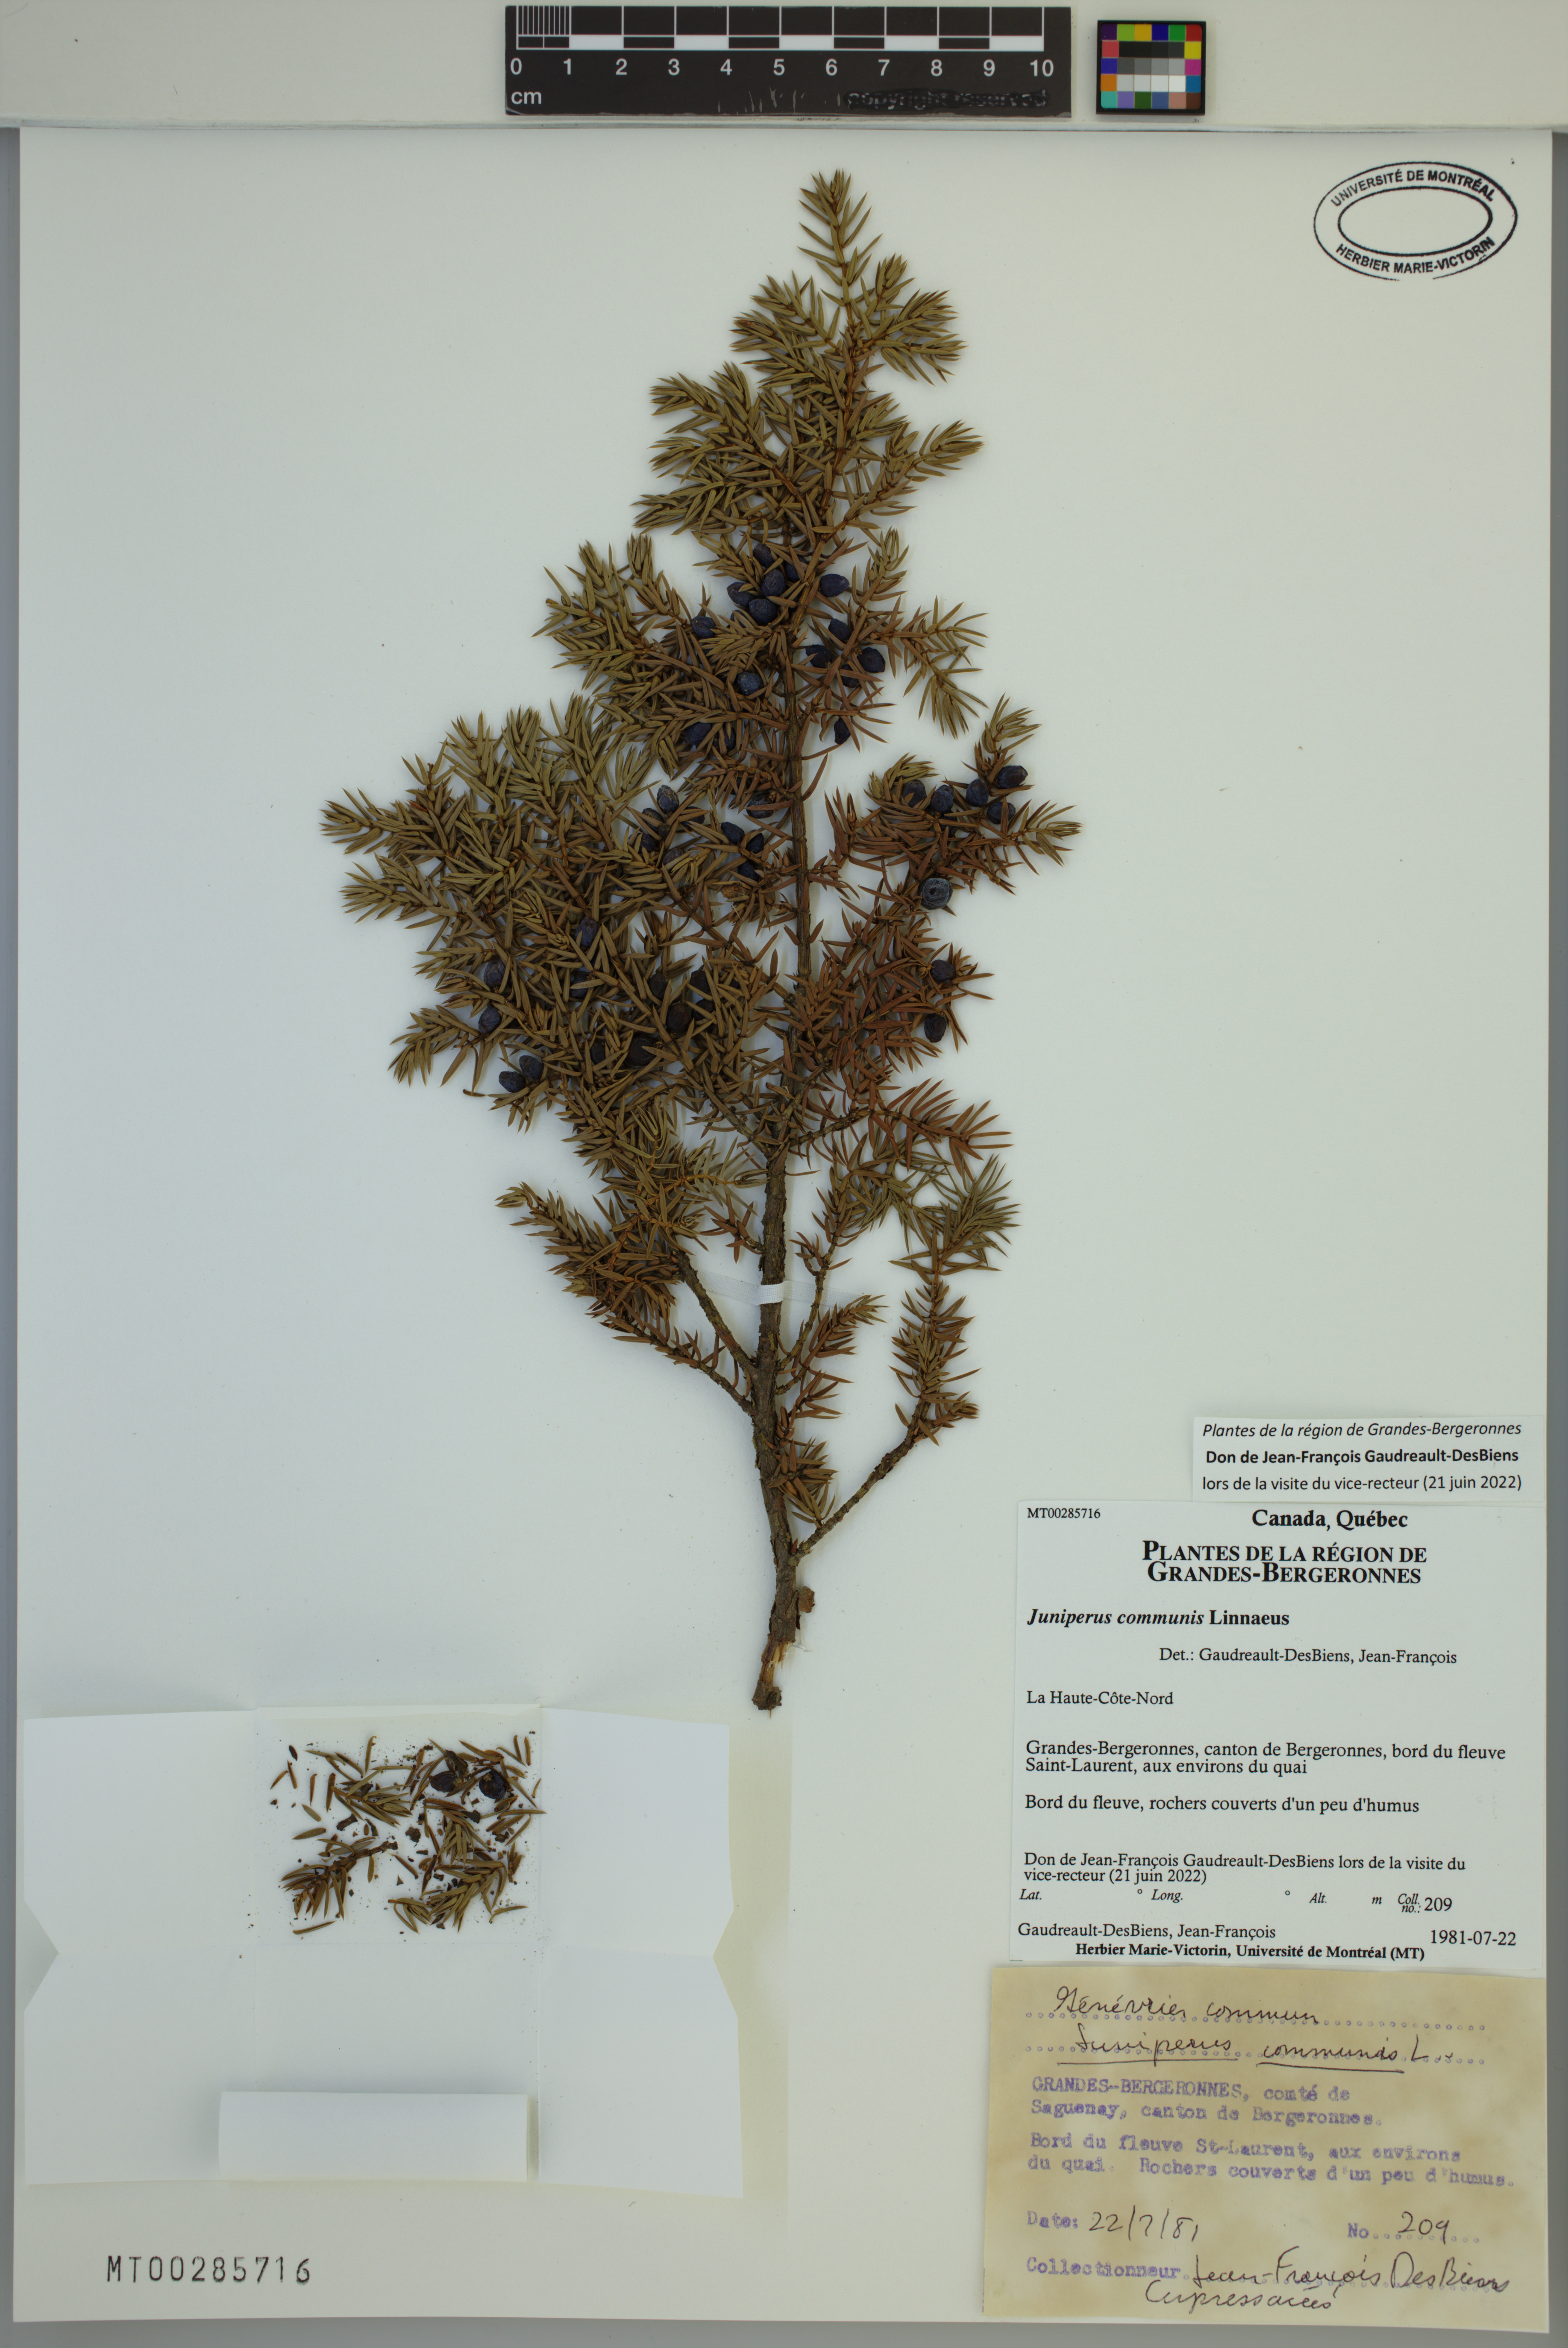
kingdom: Plantae
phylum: Tracheophyta
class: Pinopsida
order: Pinales
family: Cupressaceae
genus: Juniperus
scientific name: Juniperus communis
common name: Common juniper
